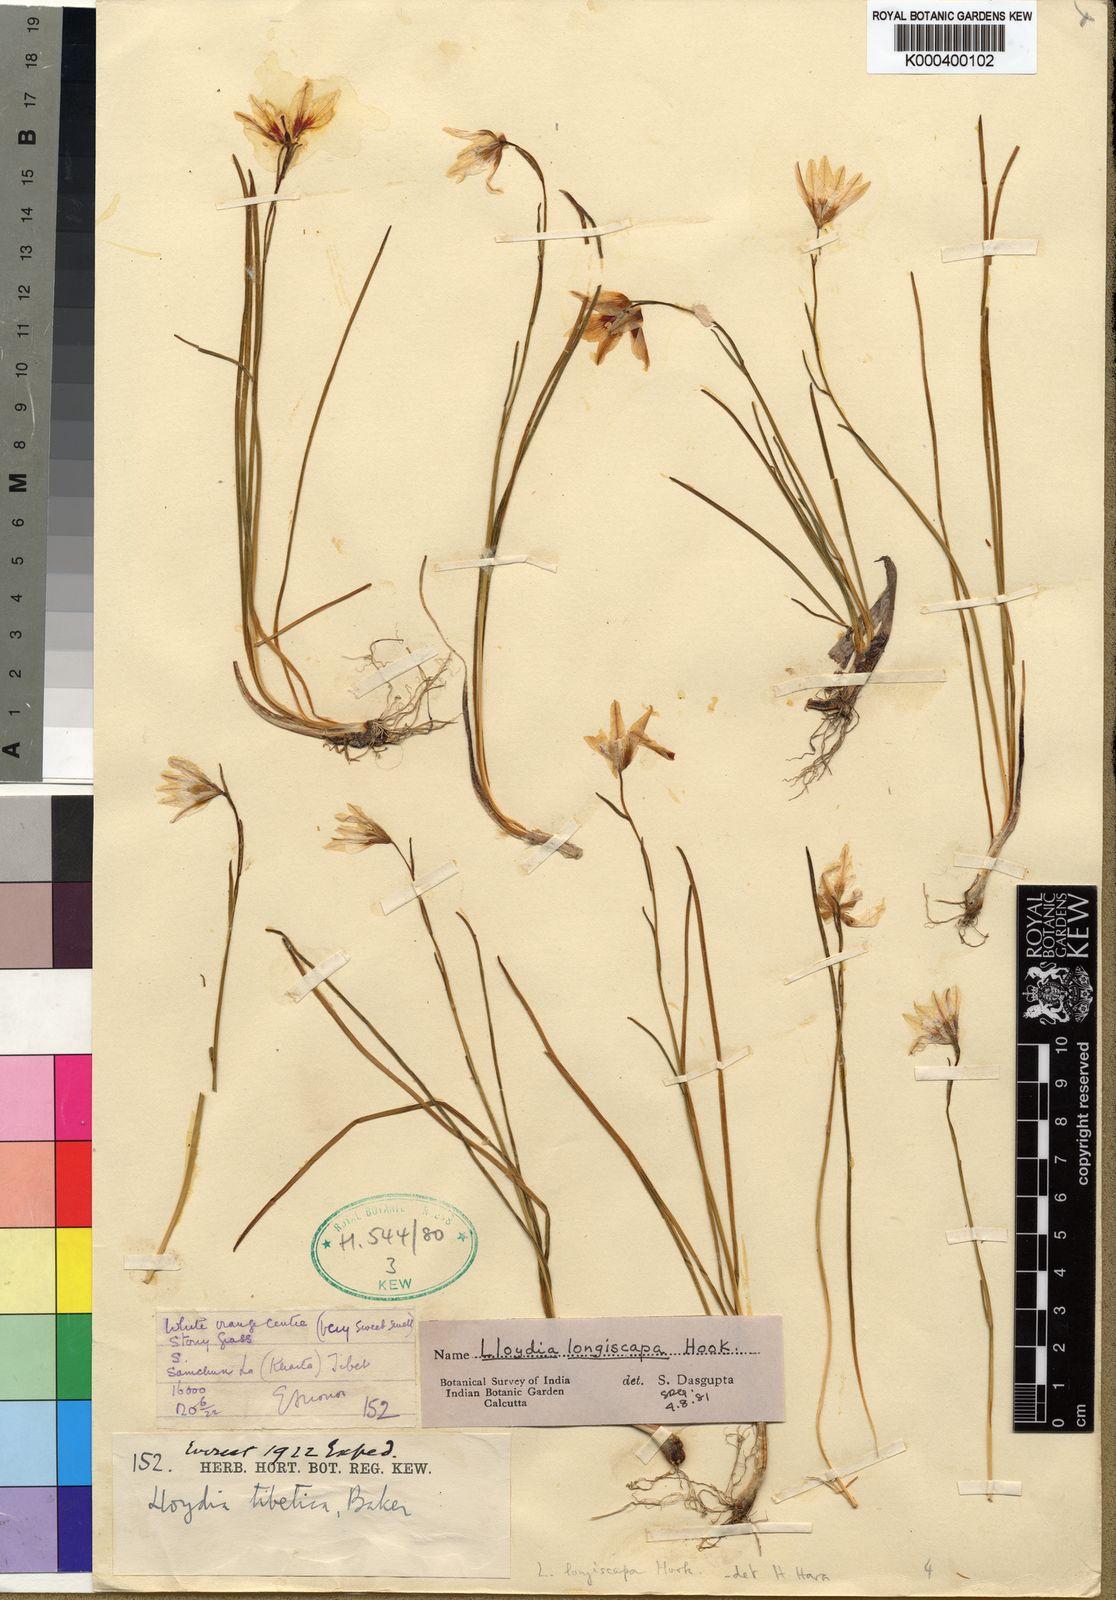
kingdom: Plantae
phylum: Tracheophyta
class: Liliopsida
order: Liliales
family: Liliaceae
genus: Gagea
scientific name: Gagea lasiantha
